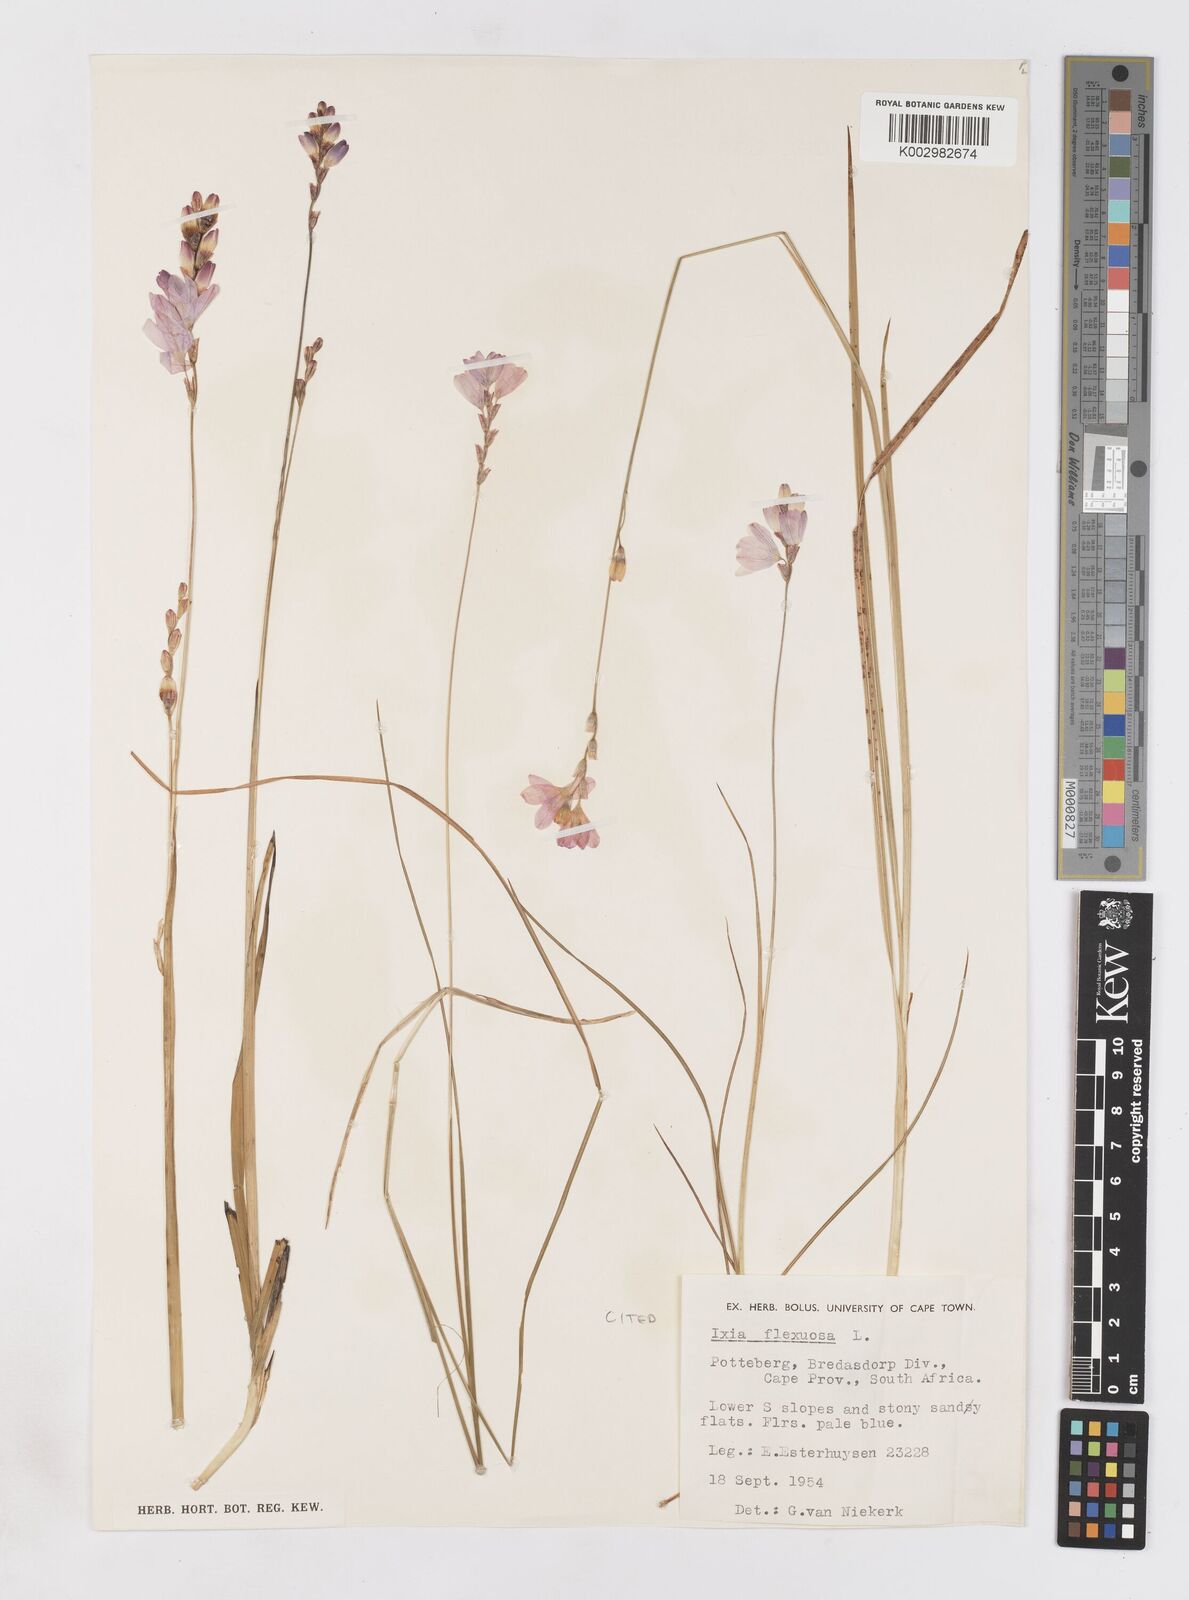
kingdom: Plantae
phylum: Tracheophyta
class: Liliopsida
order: Asparagales
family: Iridaceae
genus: Ixia
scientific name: Ixia flexuosa
